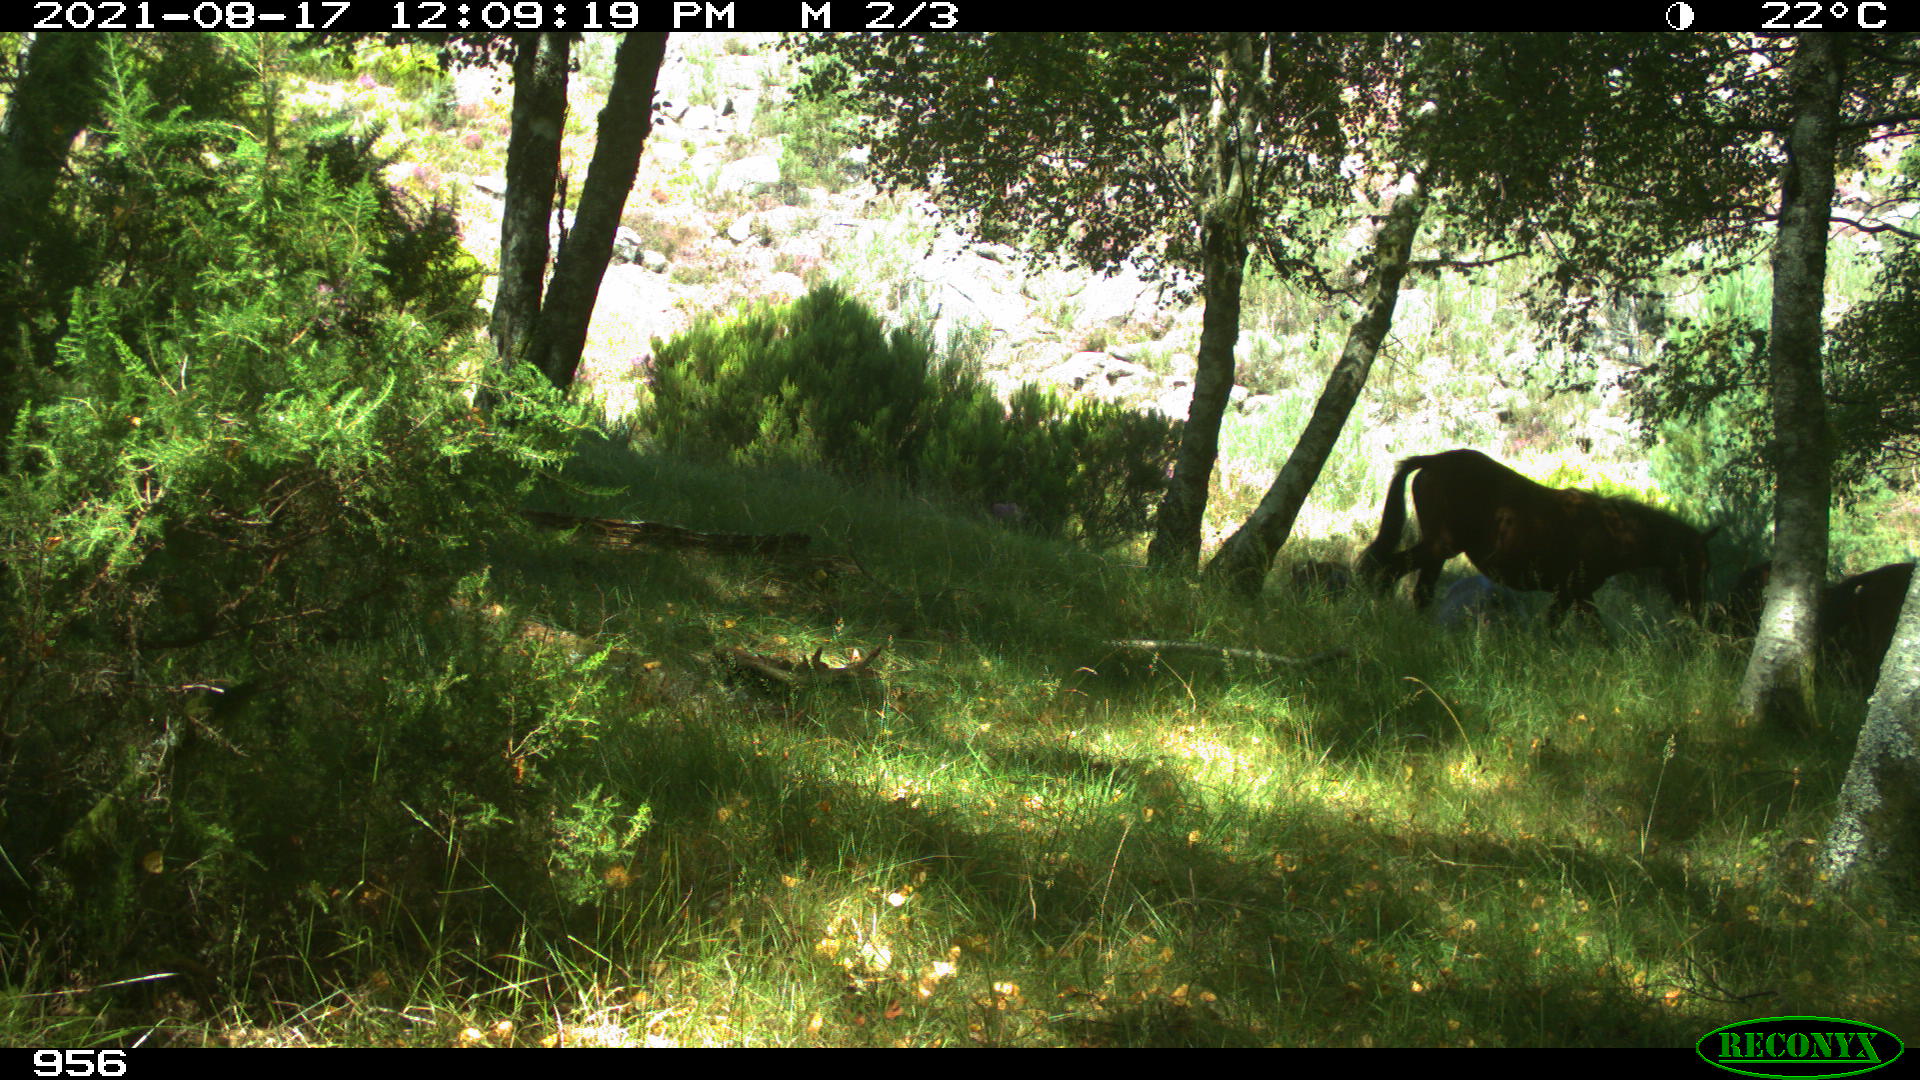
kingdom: Animalia
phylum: Chordata
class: Mammalia
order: Perissodactyla
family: Equidae
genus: Equus
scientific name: Equus caballus
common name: Horse
